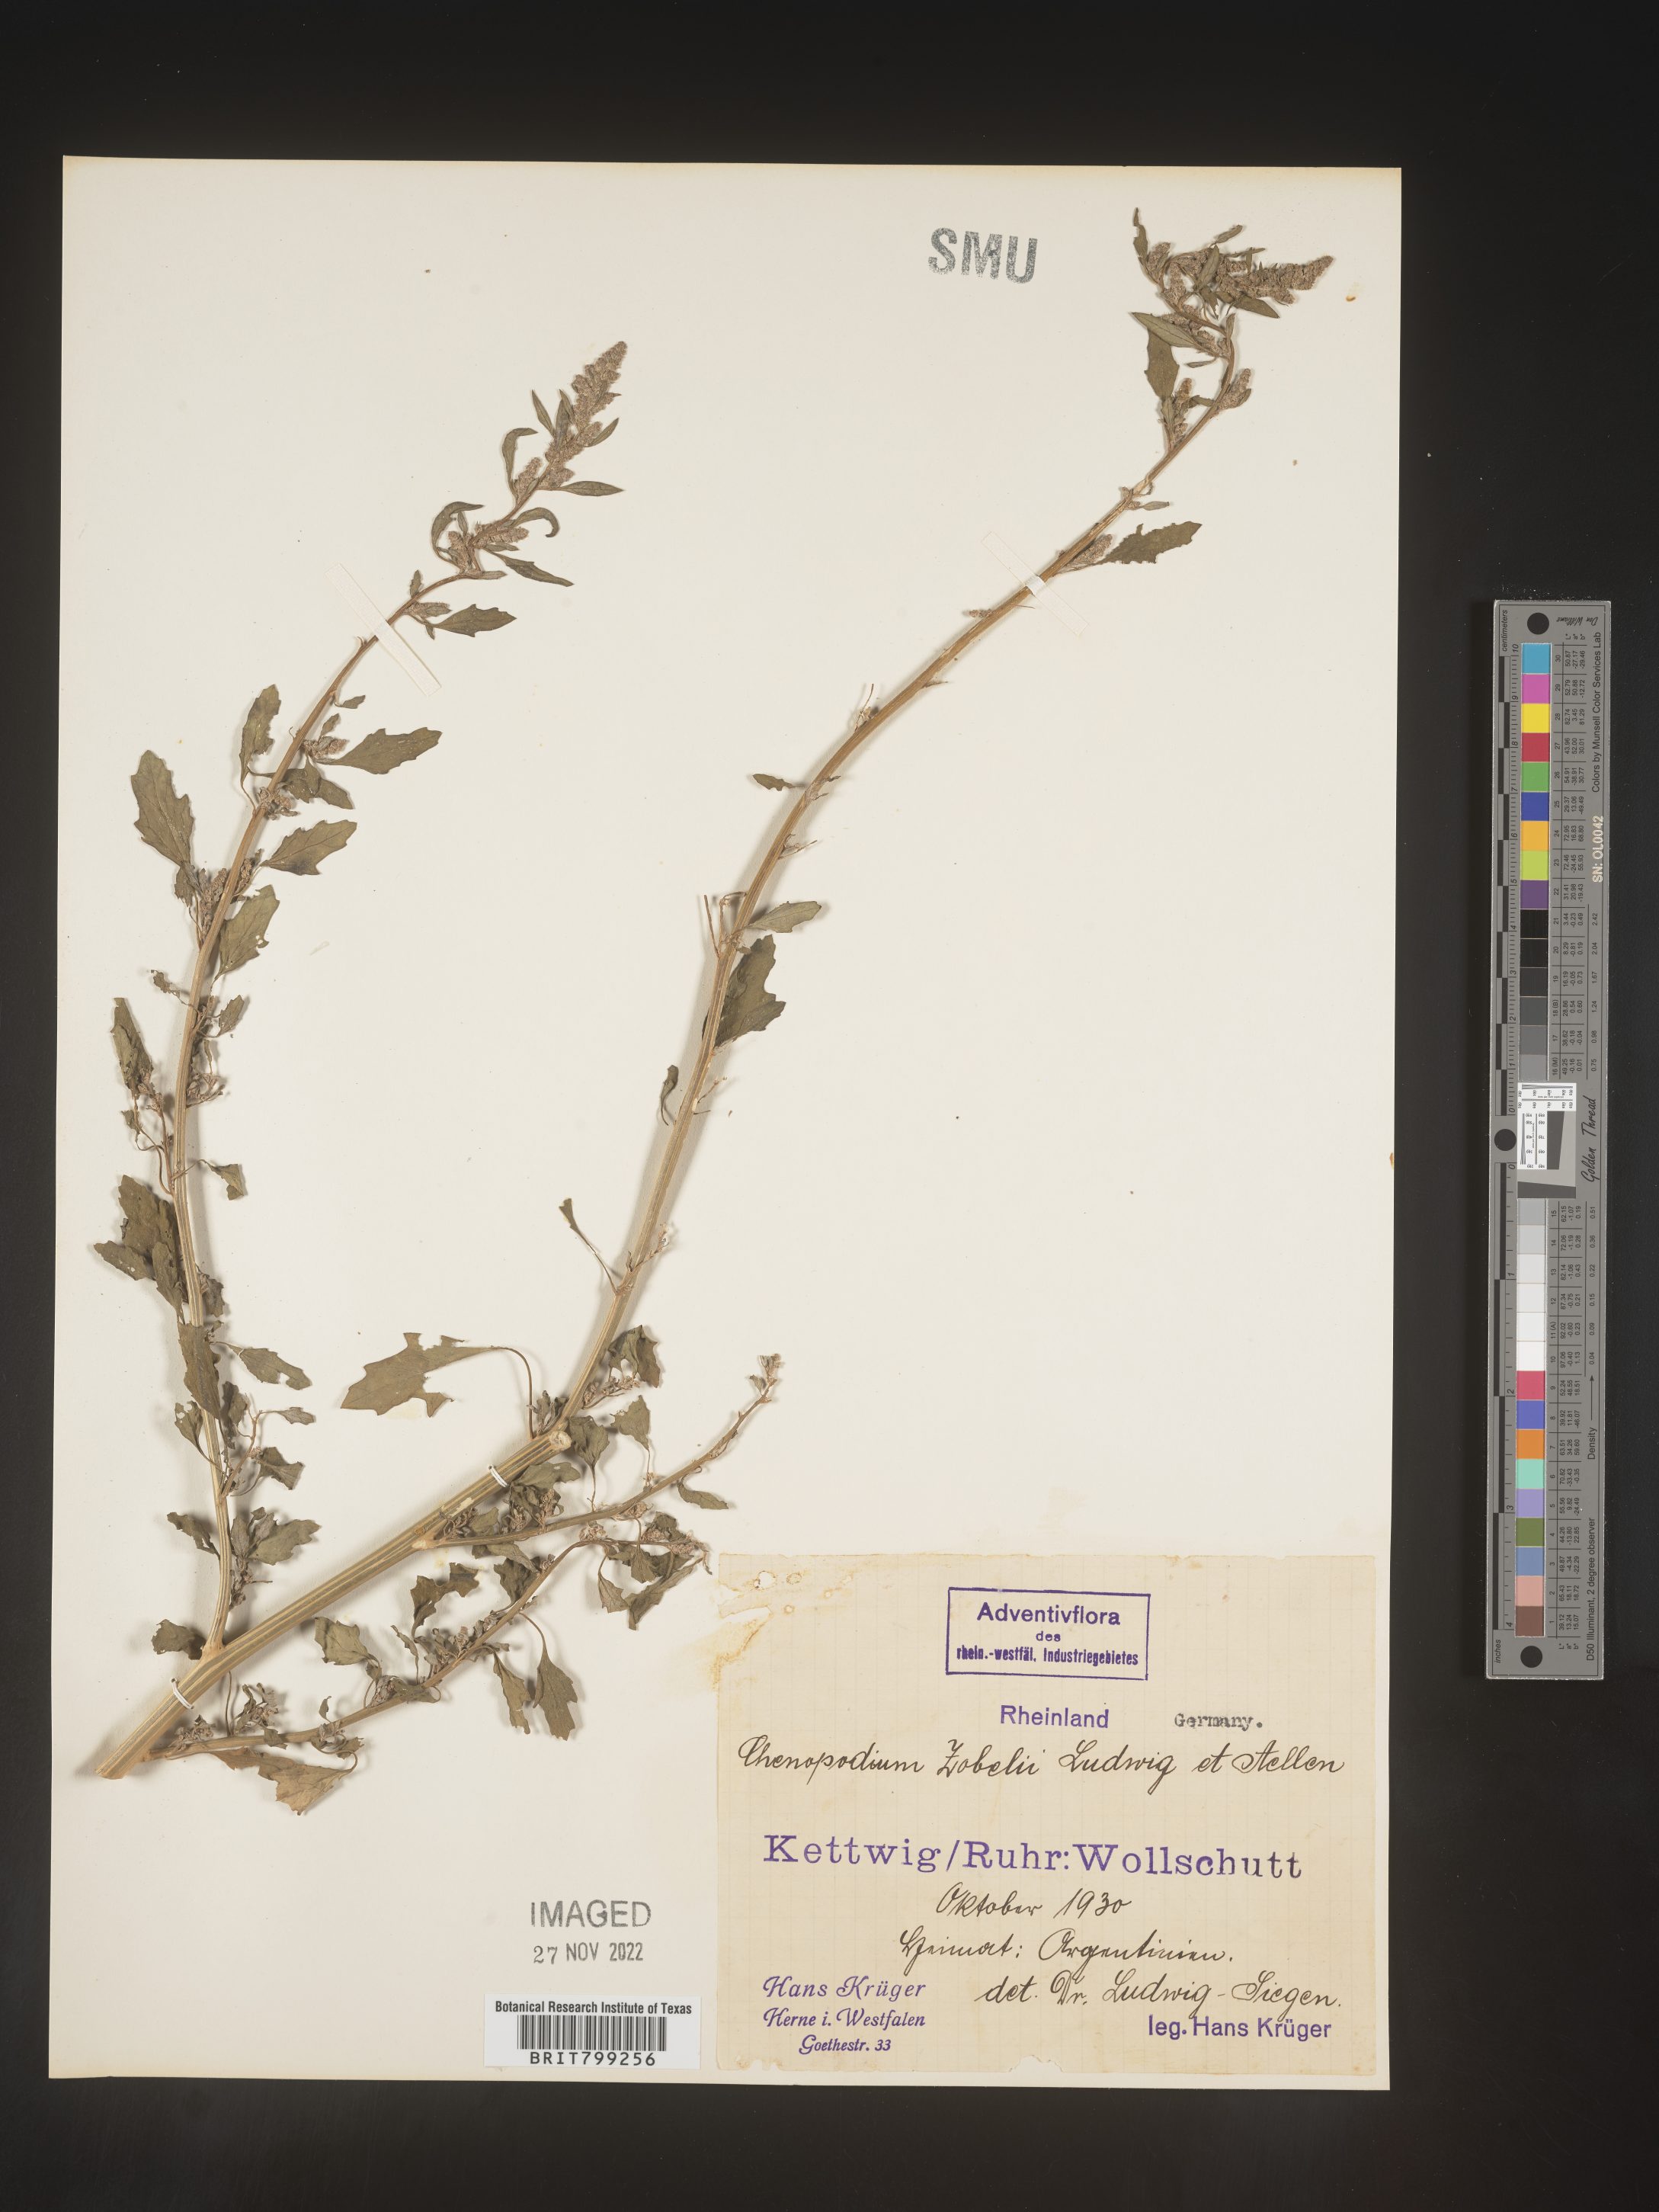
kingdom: Plantae
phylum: Tracheophyta
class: Magnoliopsida
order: Caryophyllales
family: Amaranthaceae
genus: Chenopodium
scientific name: Chenopodium
